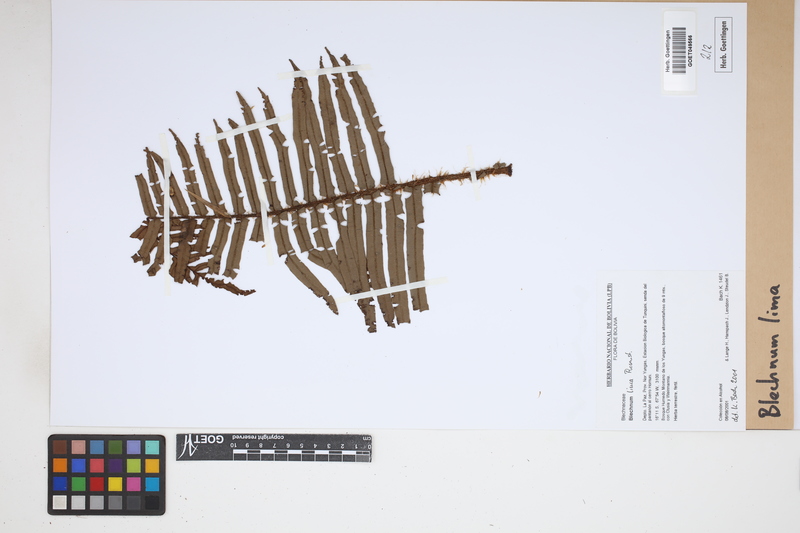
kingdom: Plantae
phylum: Tracheophyta
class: Polypodiopsida
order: Polypodiales
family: Blechnaceae
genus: Parablechnum
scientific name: Parablechnum lima
